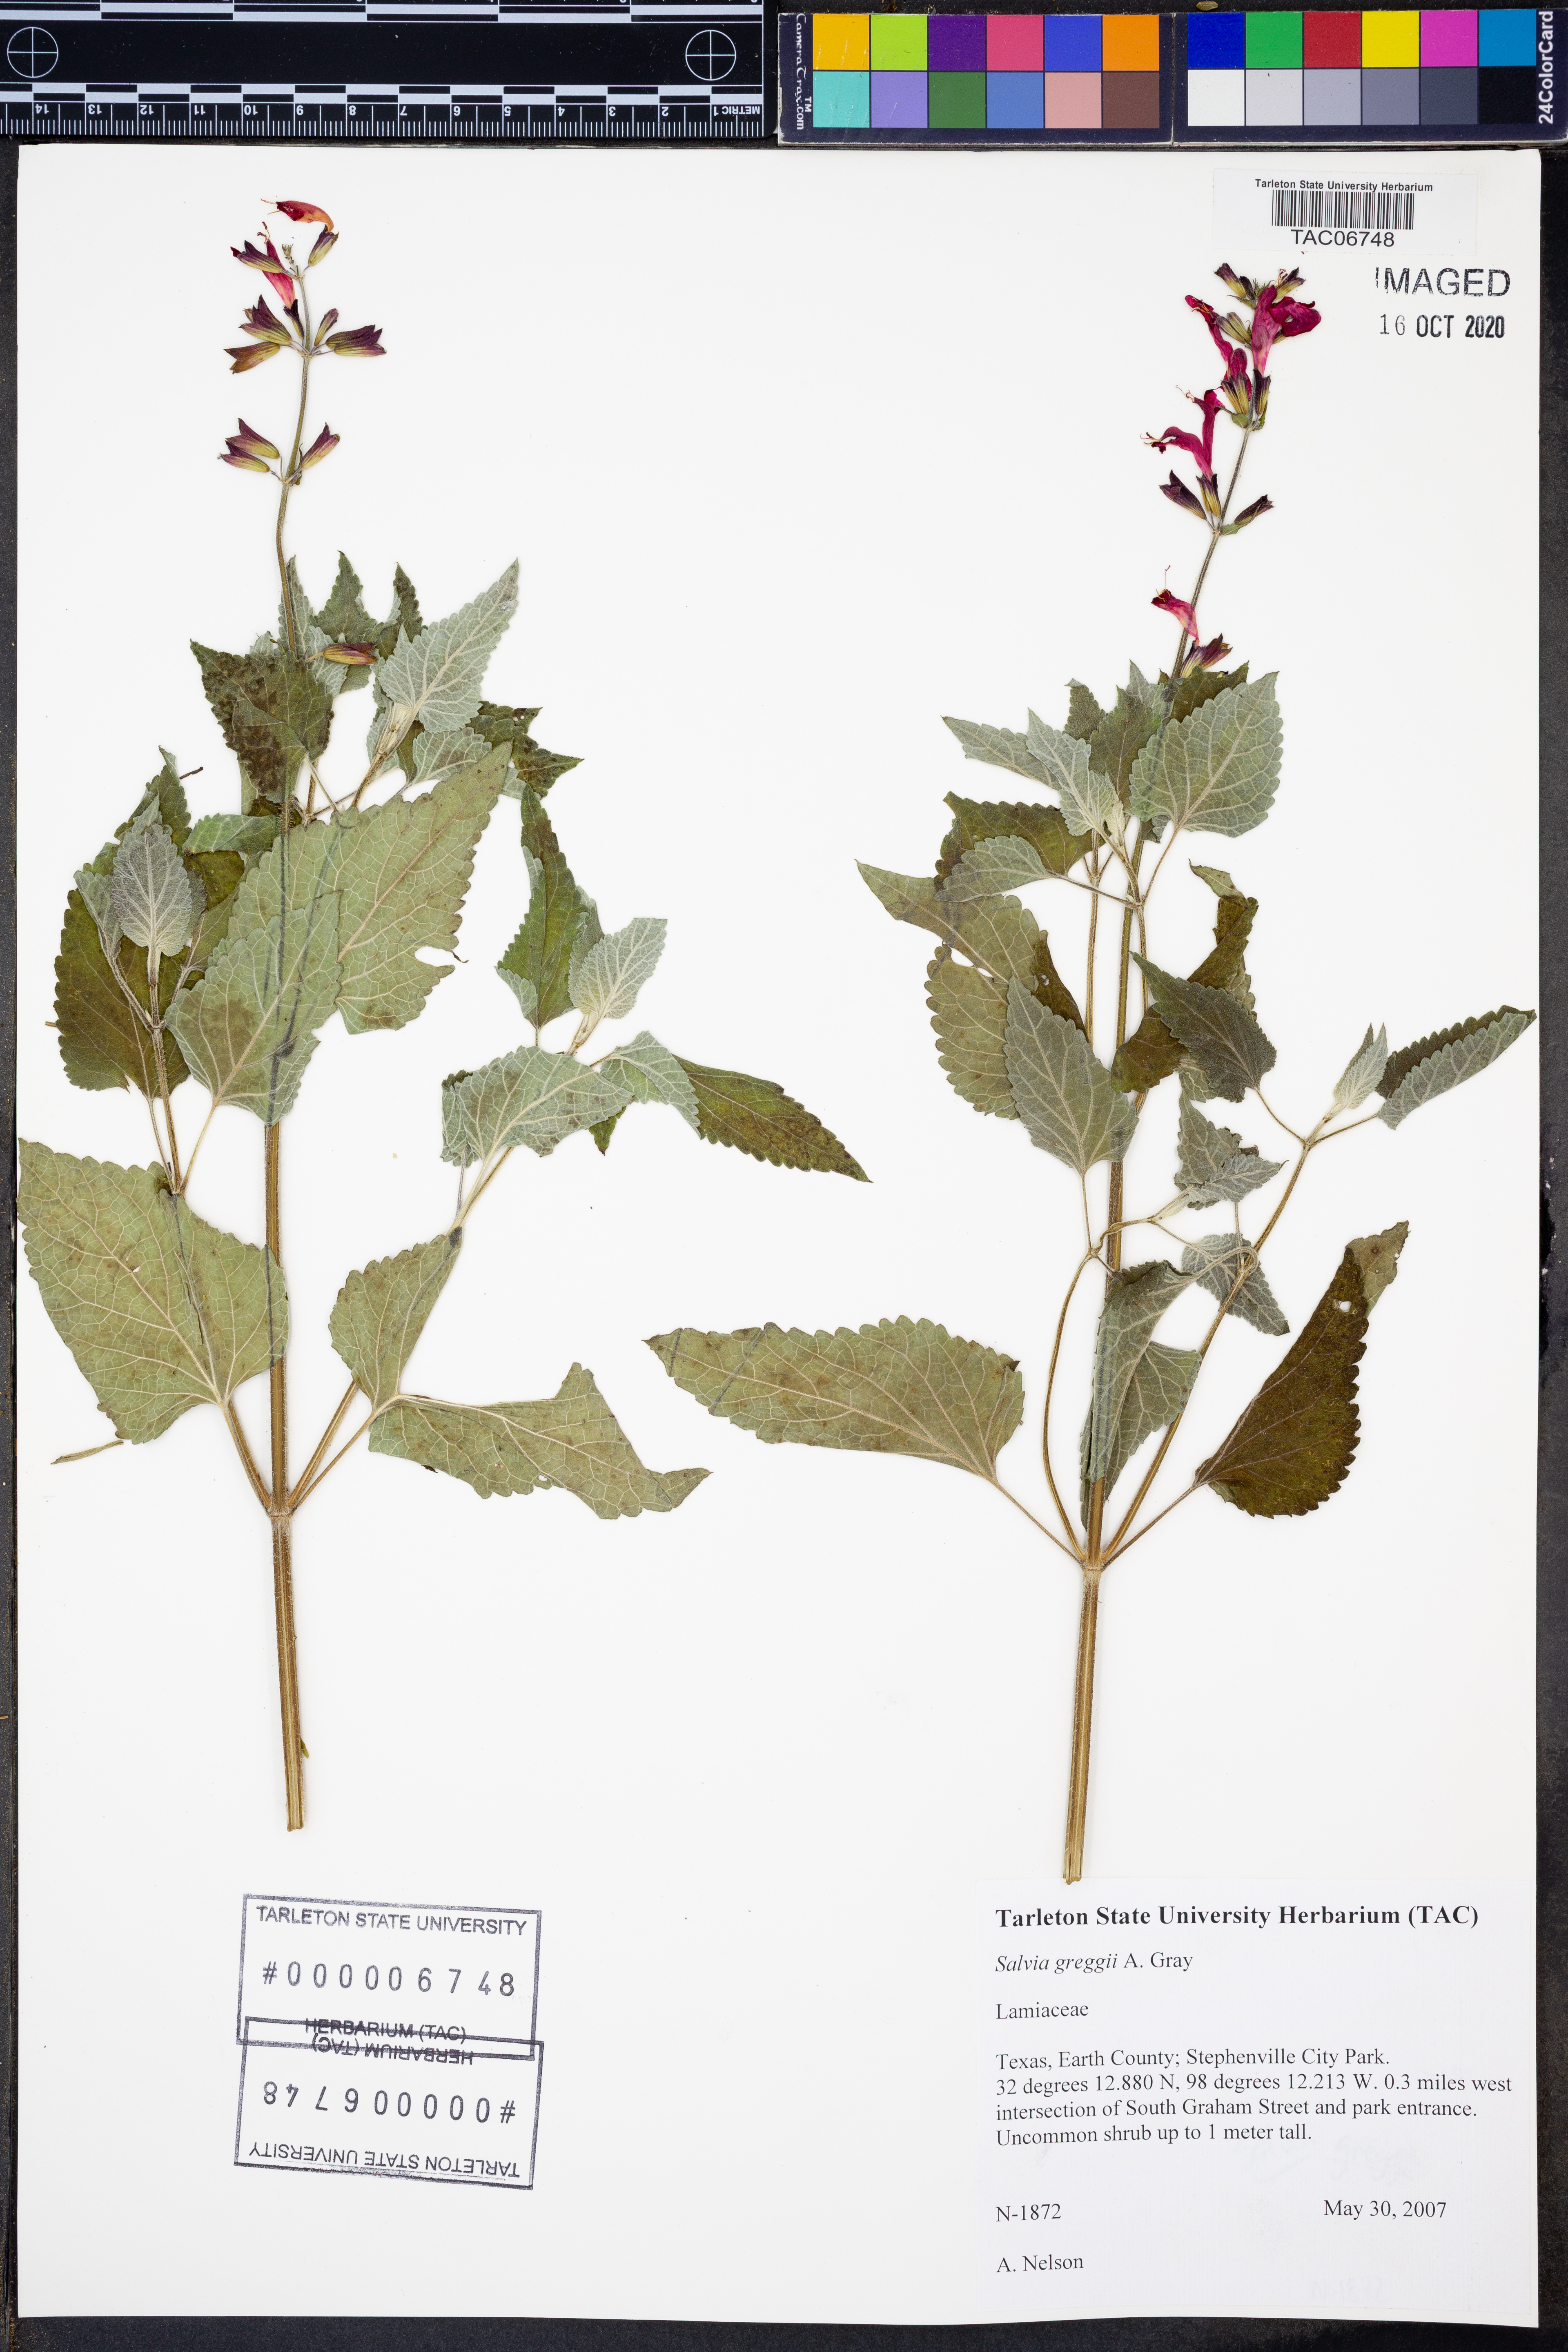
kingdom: Plantae
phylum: Tracheophyta
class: Magnoliopsida
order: Lamiales
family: Lamiaceae
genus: Salvia
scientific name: Salvia greggii
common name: Autumn sage
